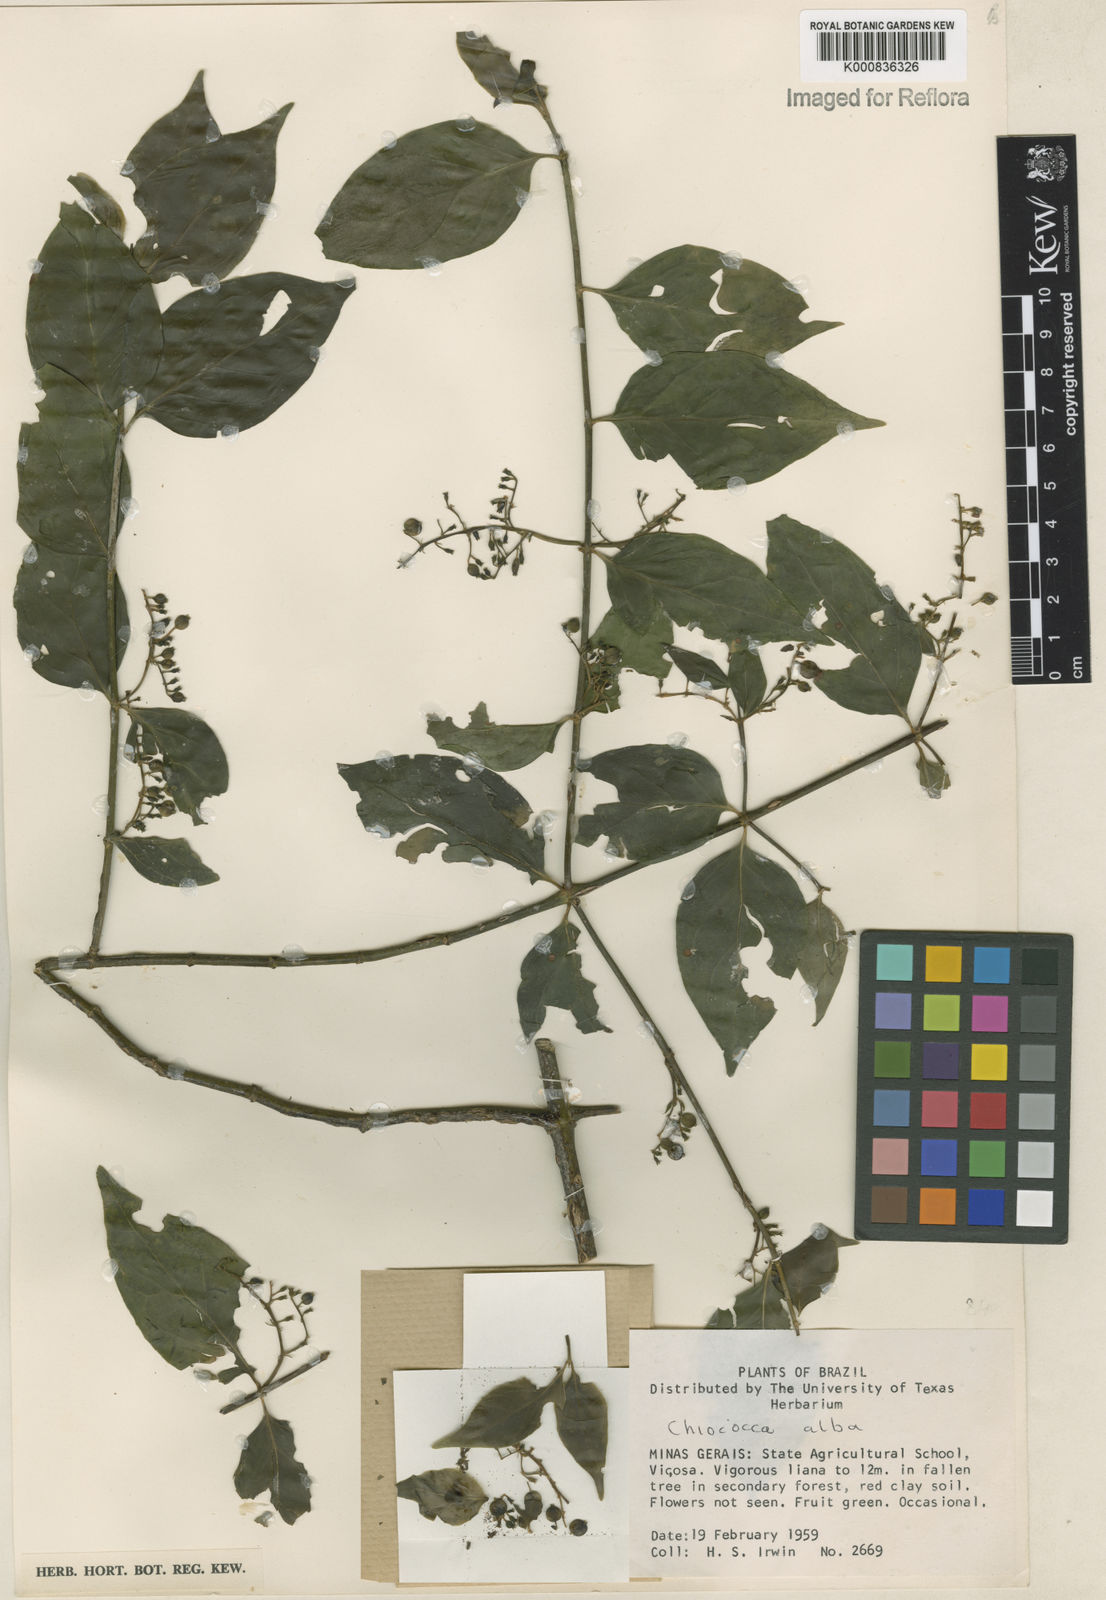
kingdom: Plantae
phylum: Tracheophyta
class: Magnoliopsida
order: Gentianales
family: Rubiaceae
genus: Chiococca
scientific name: Chiococca alba
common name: Snowberry
